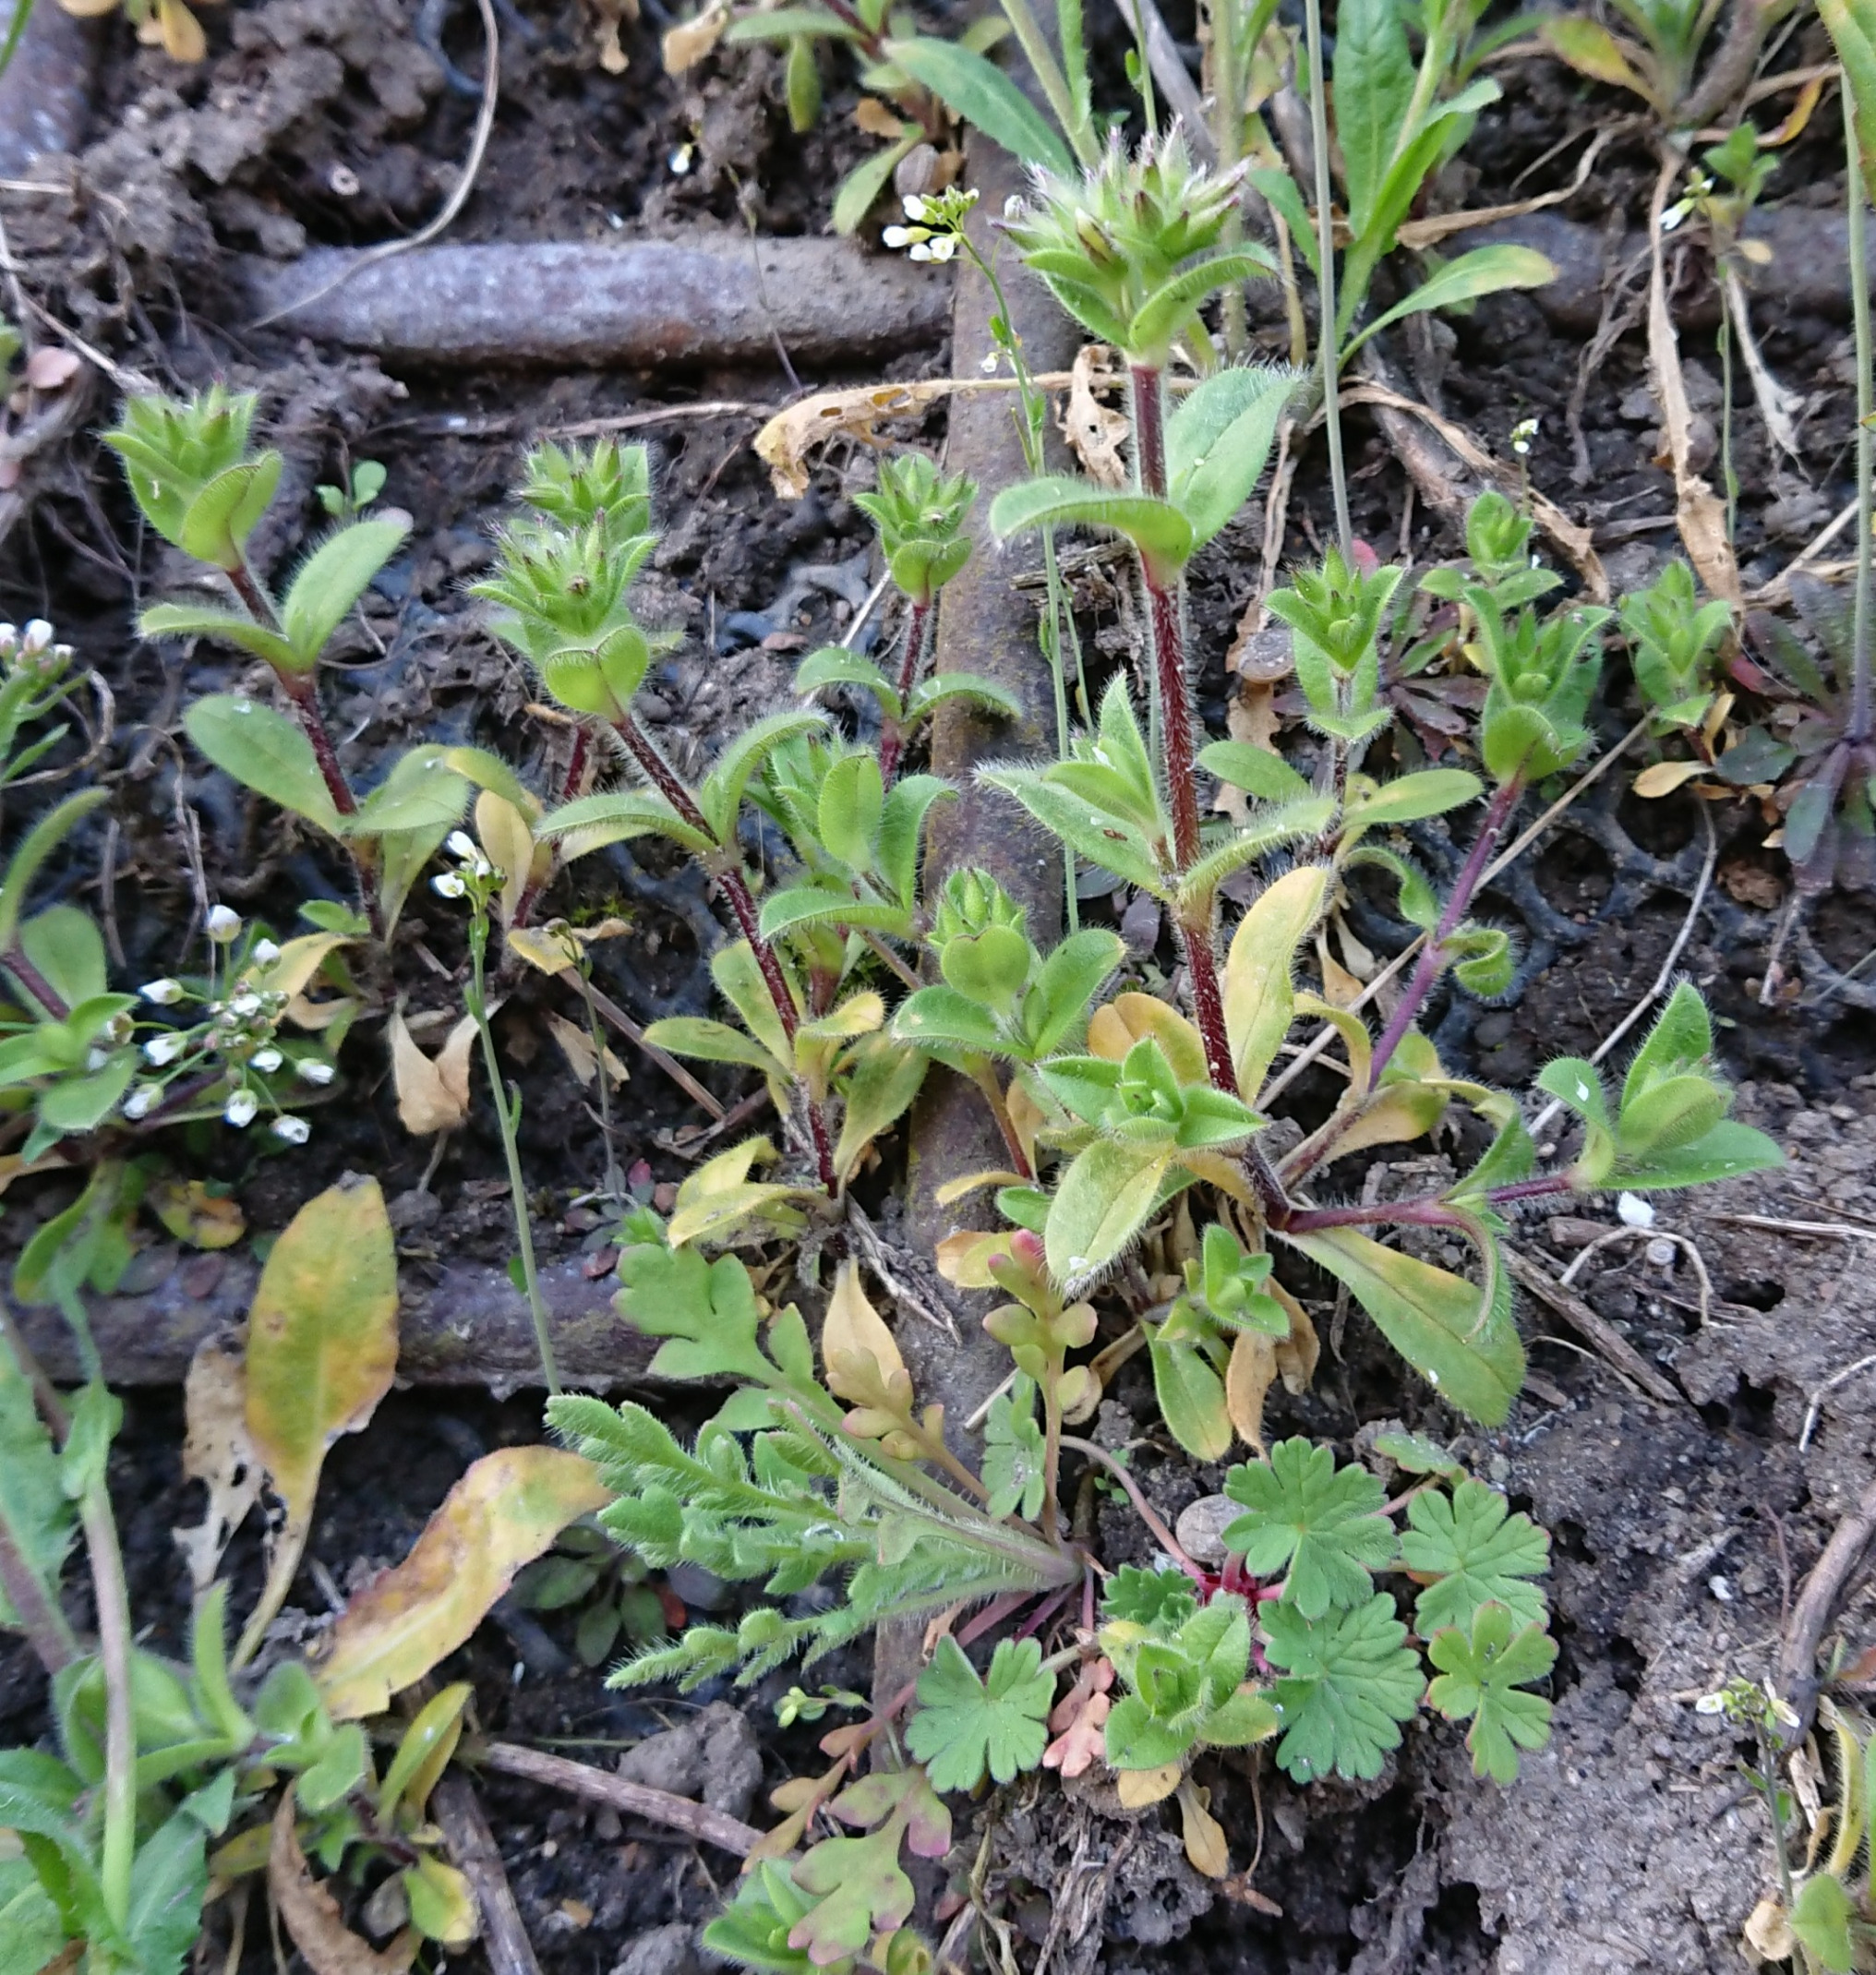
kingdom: Plantae
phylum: Tracheophyta
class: Magnoliopsida
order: Caryophyllales
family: Caryophyllaceae
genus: Cerastium
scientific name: Cerastium glomeratum
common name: Opret hønsetarm
